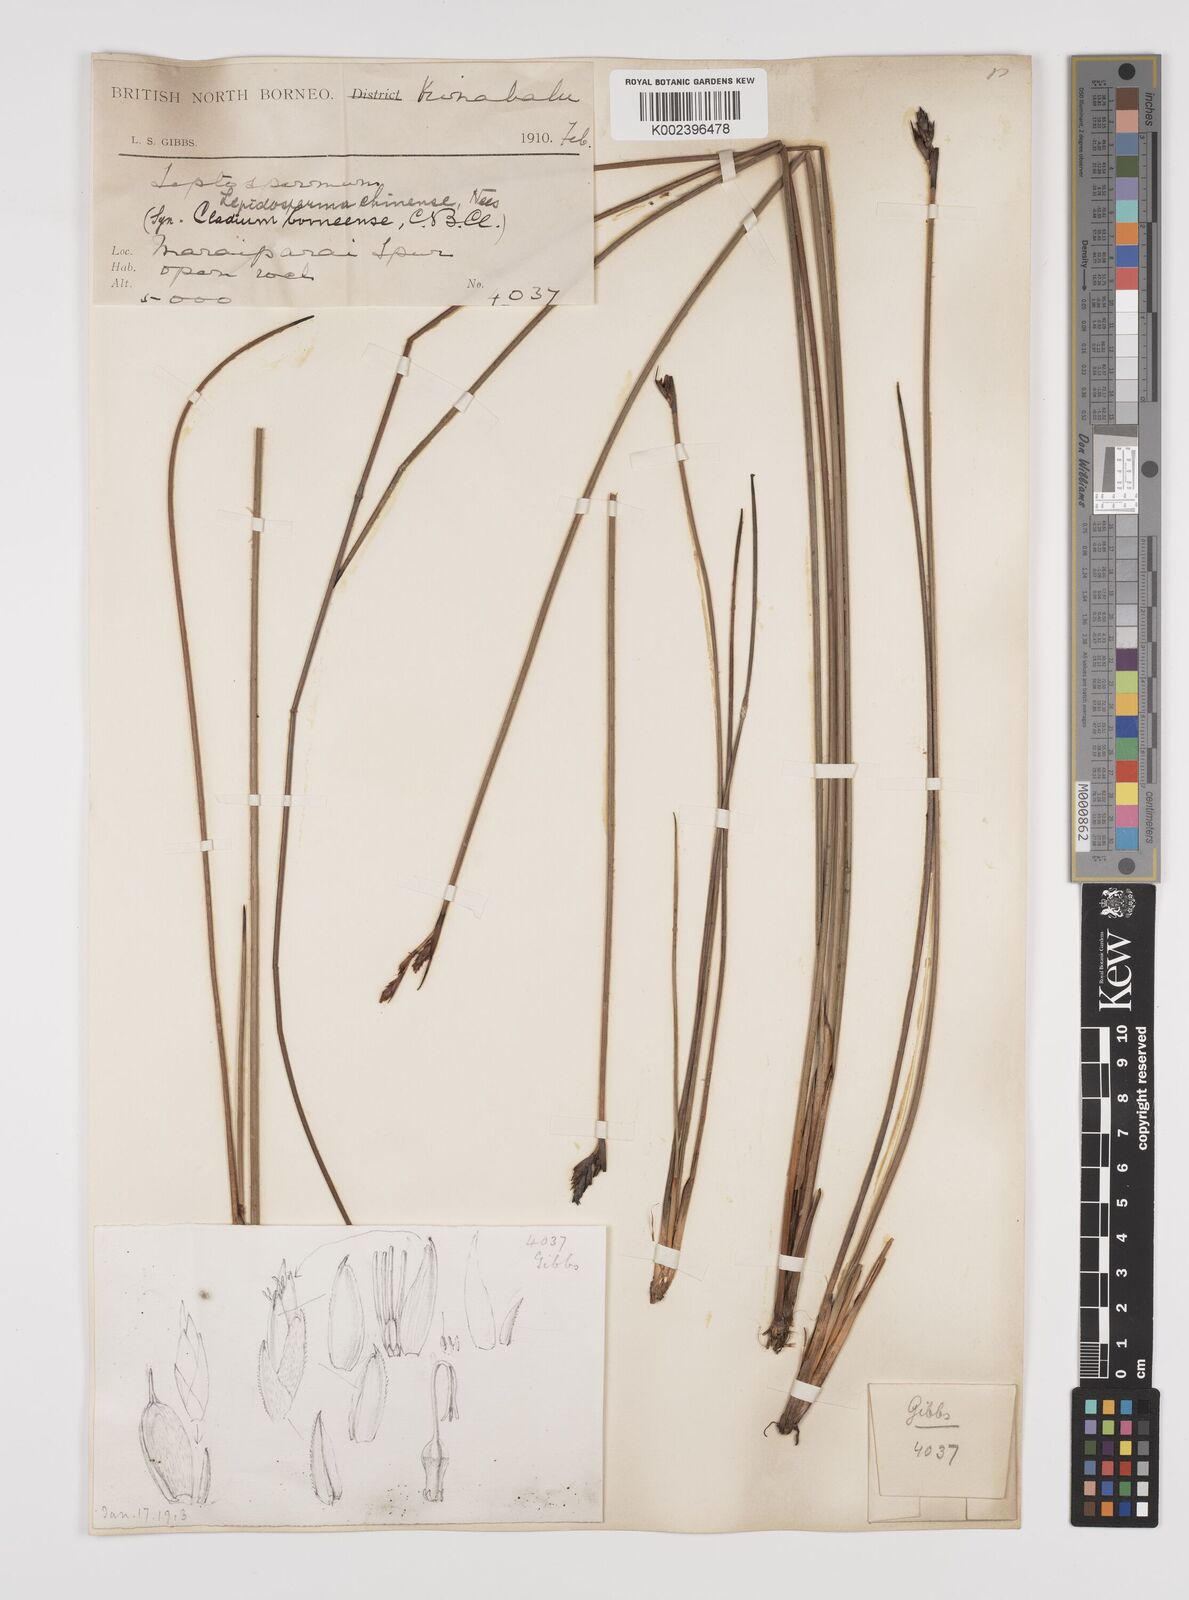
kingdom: Plantae
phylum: Tracheophyta
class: Liliopsida
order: Poales
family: Cyperaceae
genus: Lepidosperma
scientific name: Lepidosperma chinense
